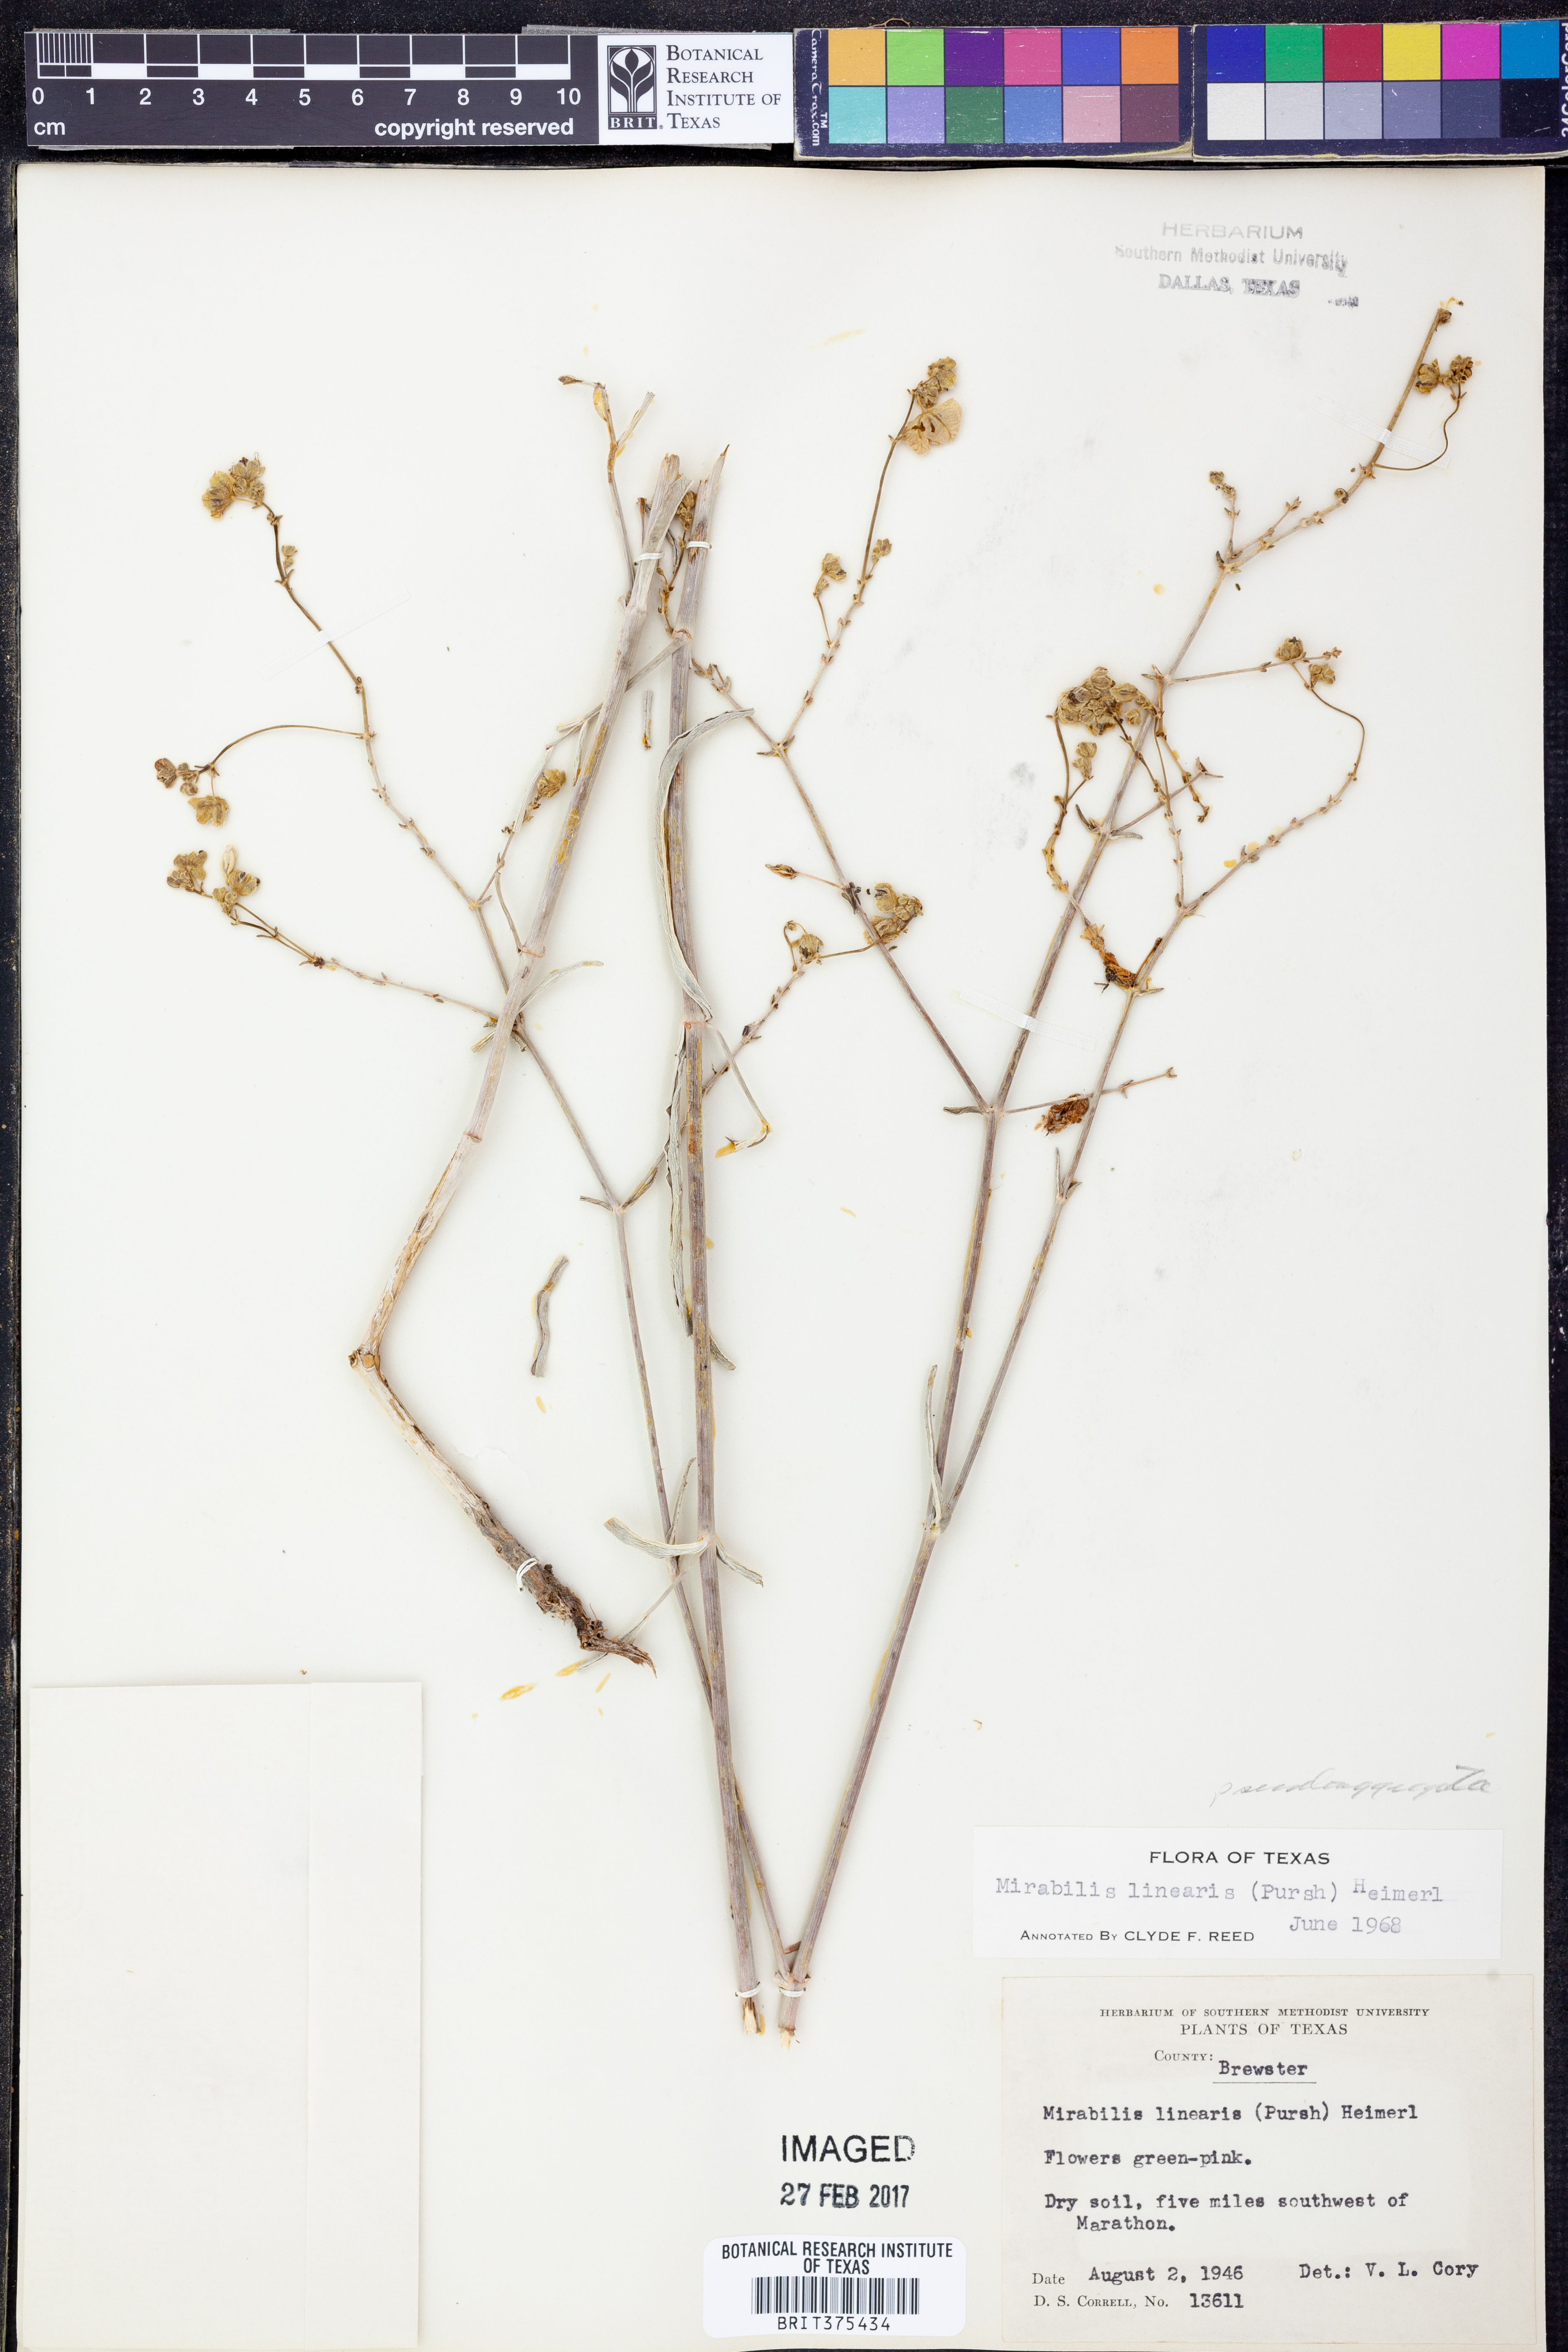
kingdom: Plantae
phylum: Tracheophyta
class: Magnoliopsida
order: Caryophyllales
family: Nyctaginaceae
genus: Mirabilis
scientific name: Mirabilis albida
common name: Hairy four-o'clock
